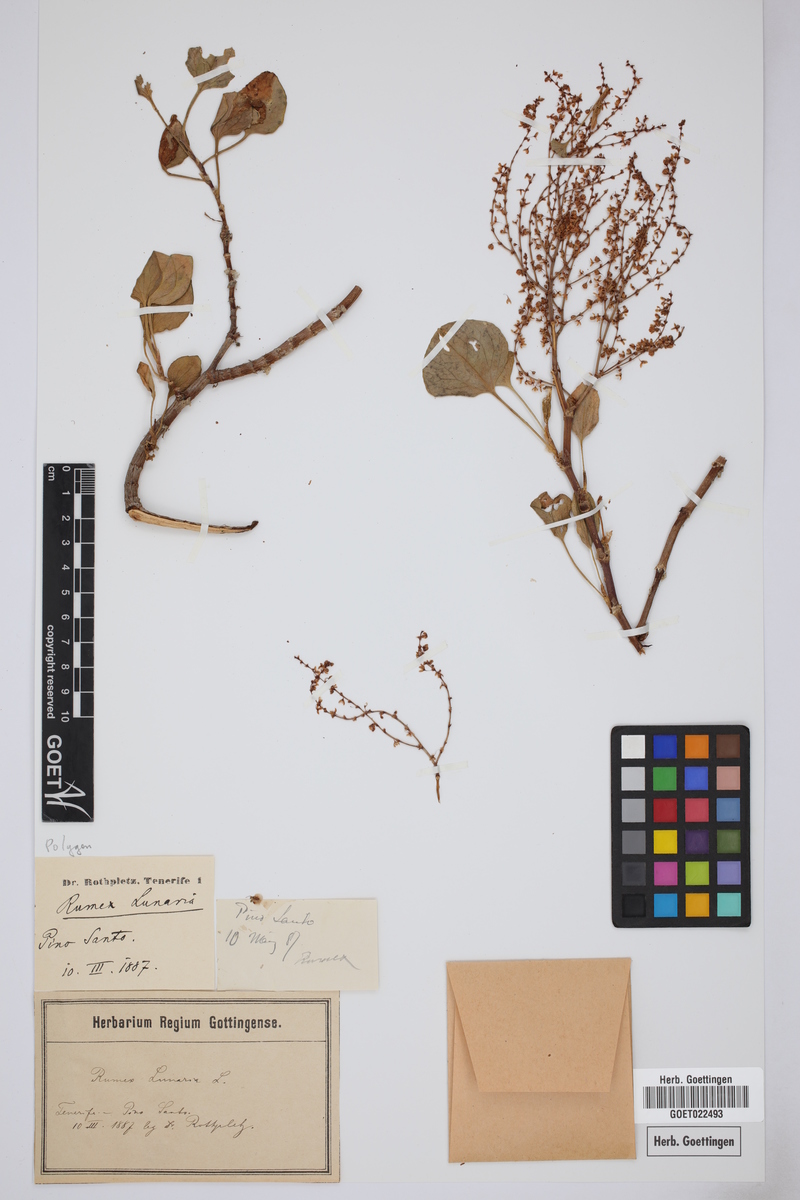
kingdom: Plantae
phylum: Tracheophyta
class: Magnoliopsida
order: Caryophyllales
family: Polygonaceae
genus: Rumex
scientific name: Rumex lunaria
